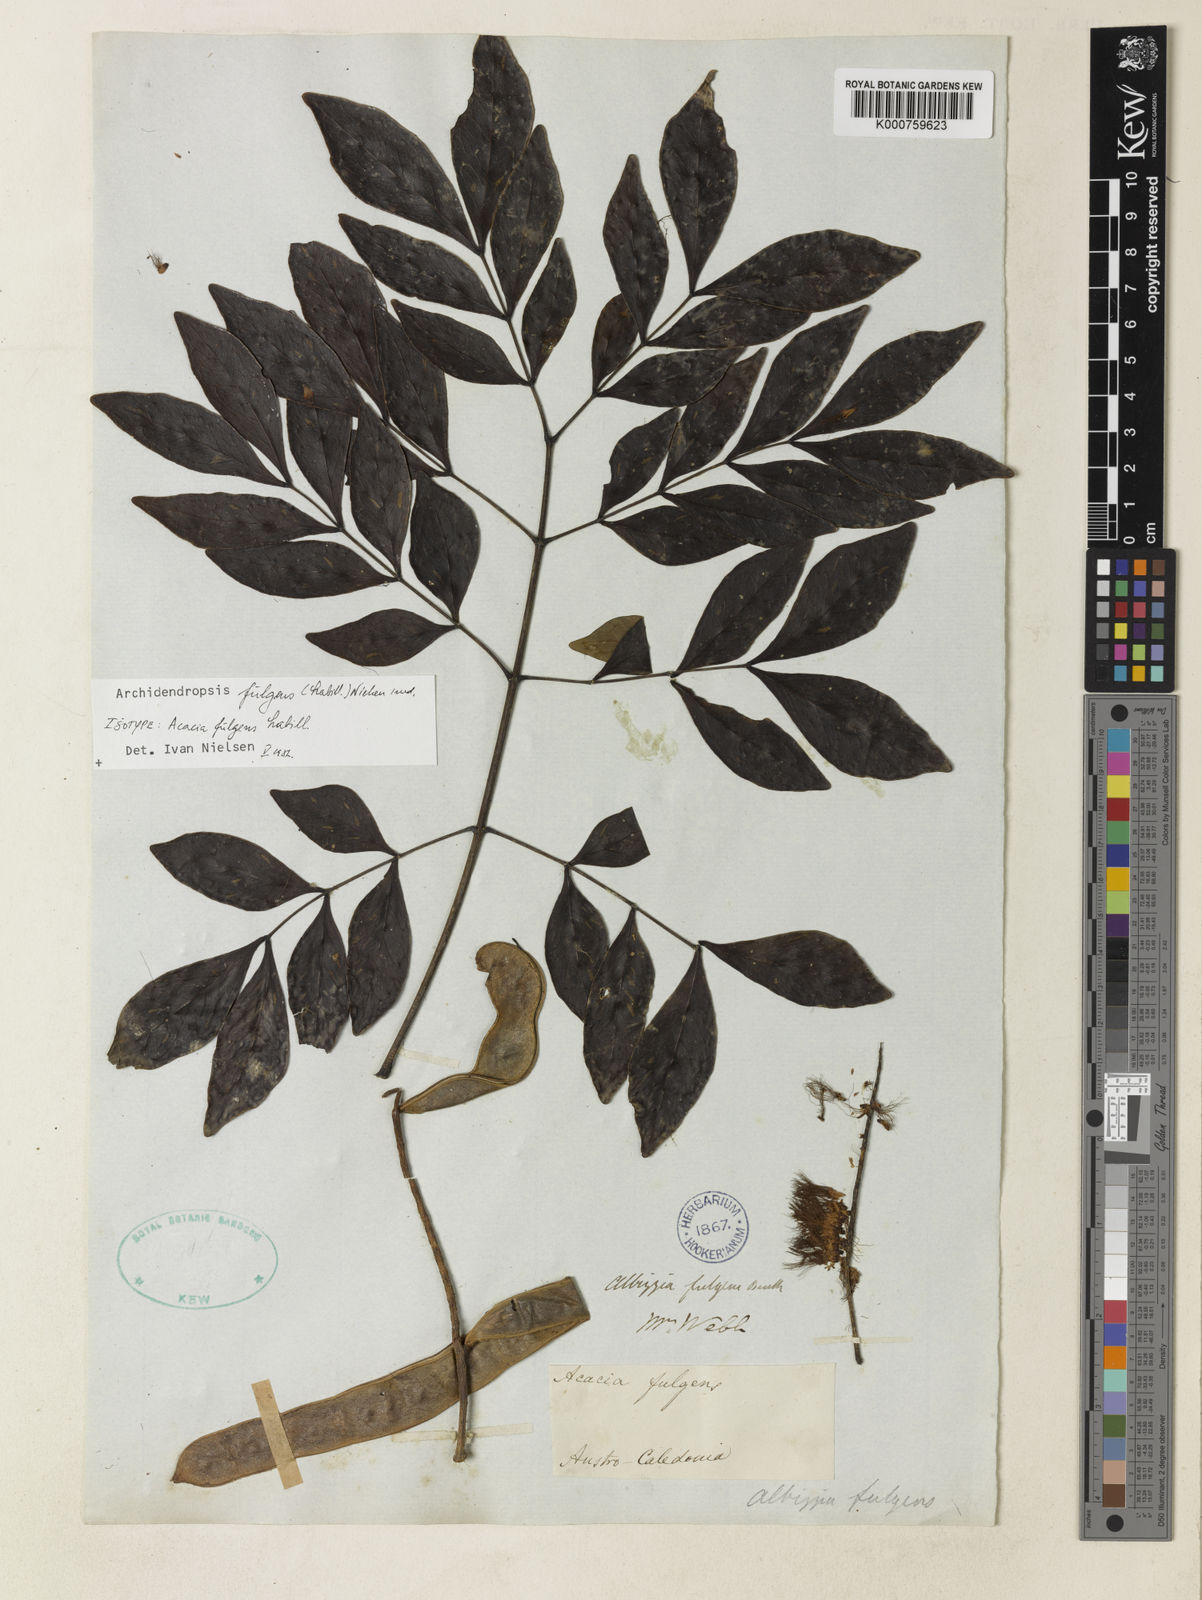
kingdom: Plantae
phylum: Tracheophyta
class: Magnoliopsida
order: Fabales
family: Fabaceae
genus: Archidendropsis
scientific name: Archidendropsis fulgens
